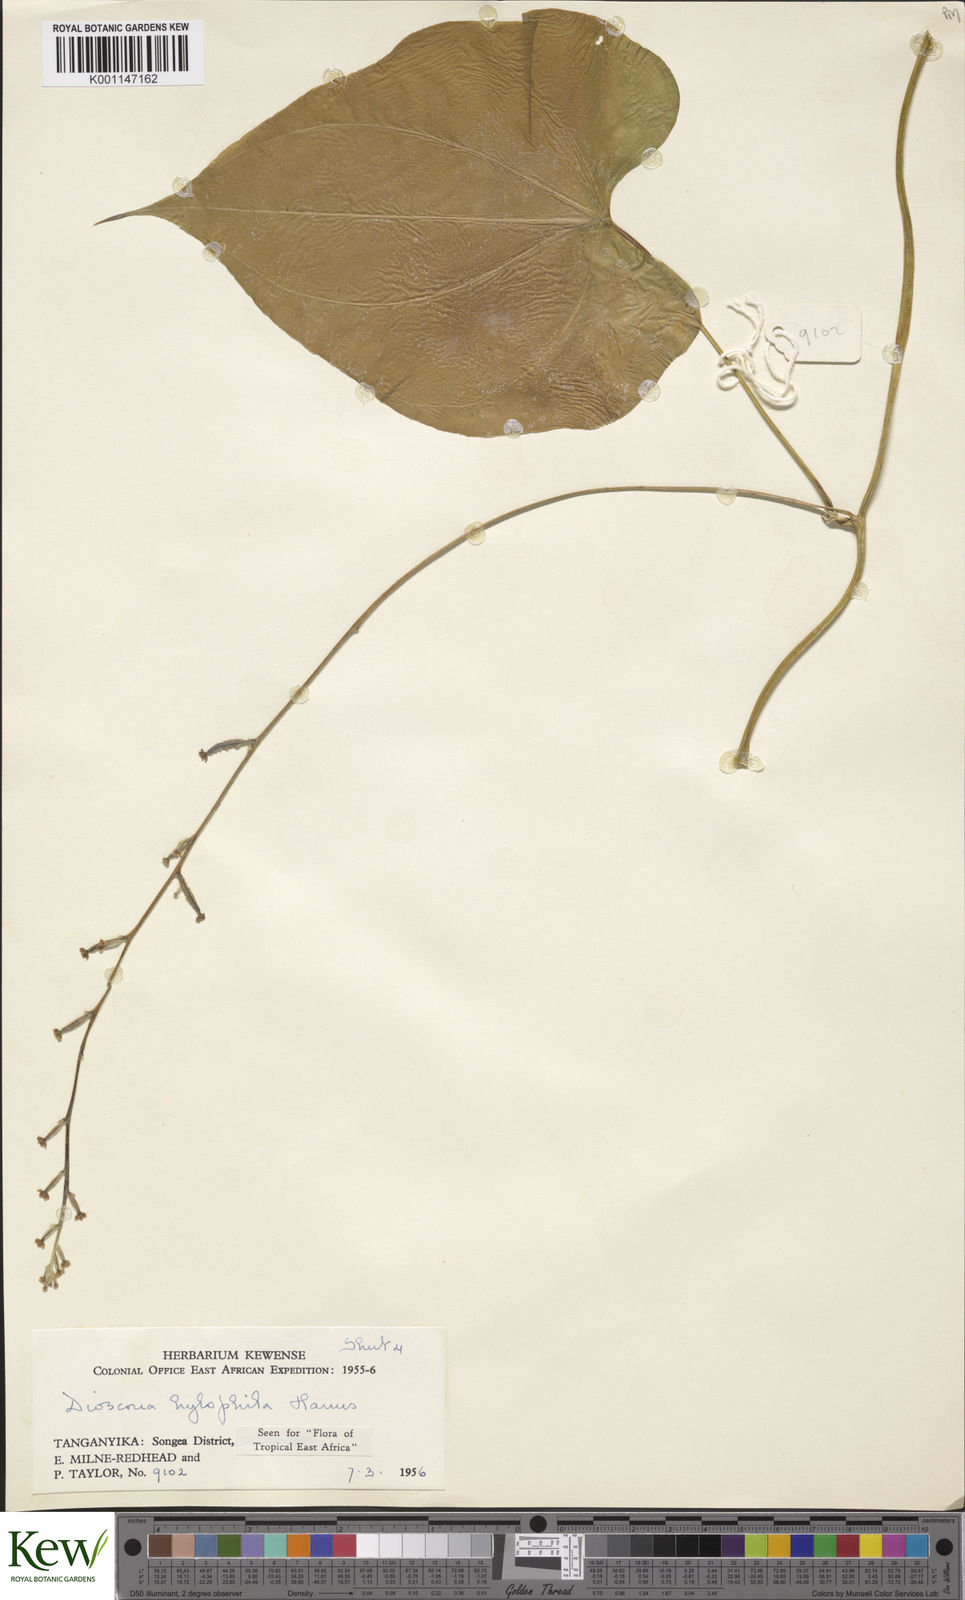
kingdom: Plantae
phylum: Tracheophyta
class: Liliopsida
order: Dioscoreales
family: Dioscoreaceae
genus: Dioscorea
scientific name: Dioscorea
